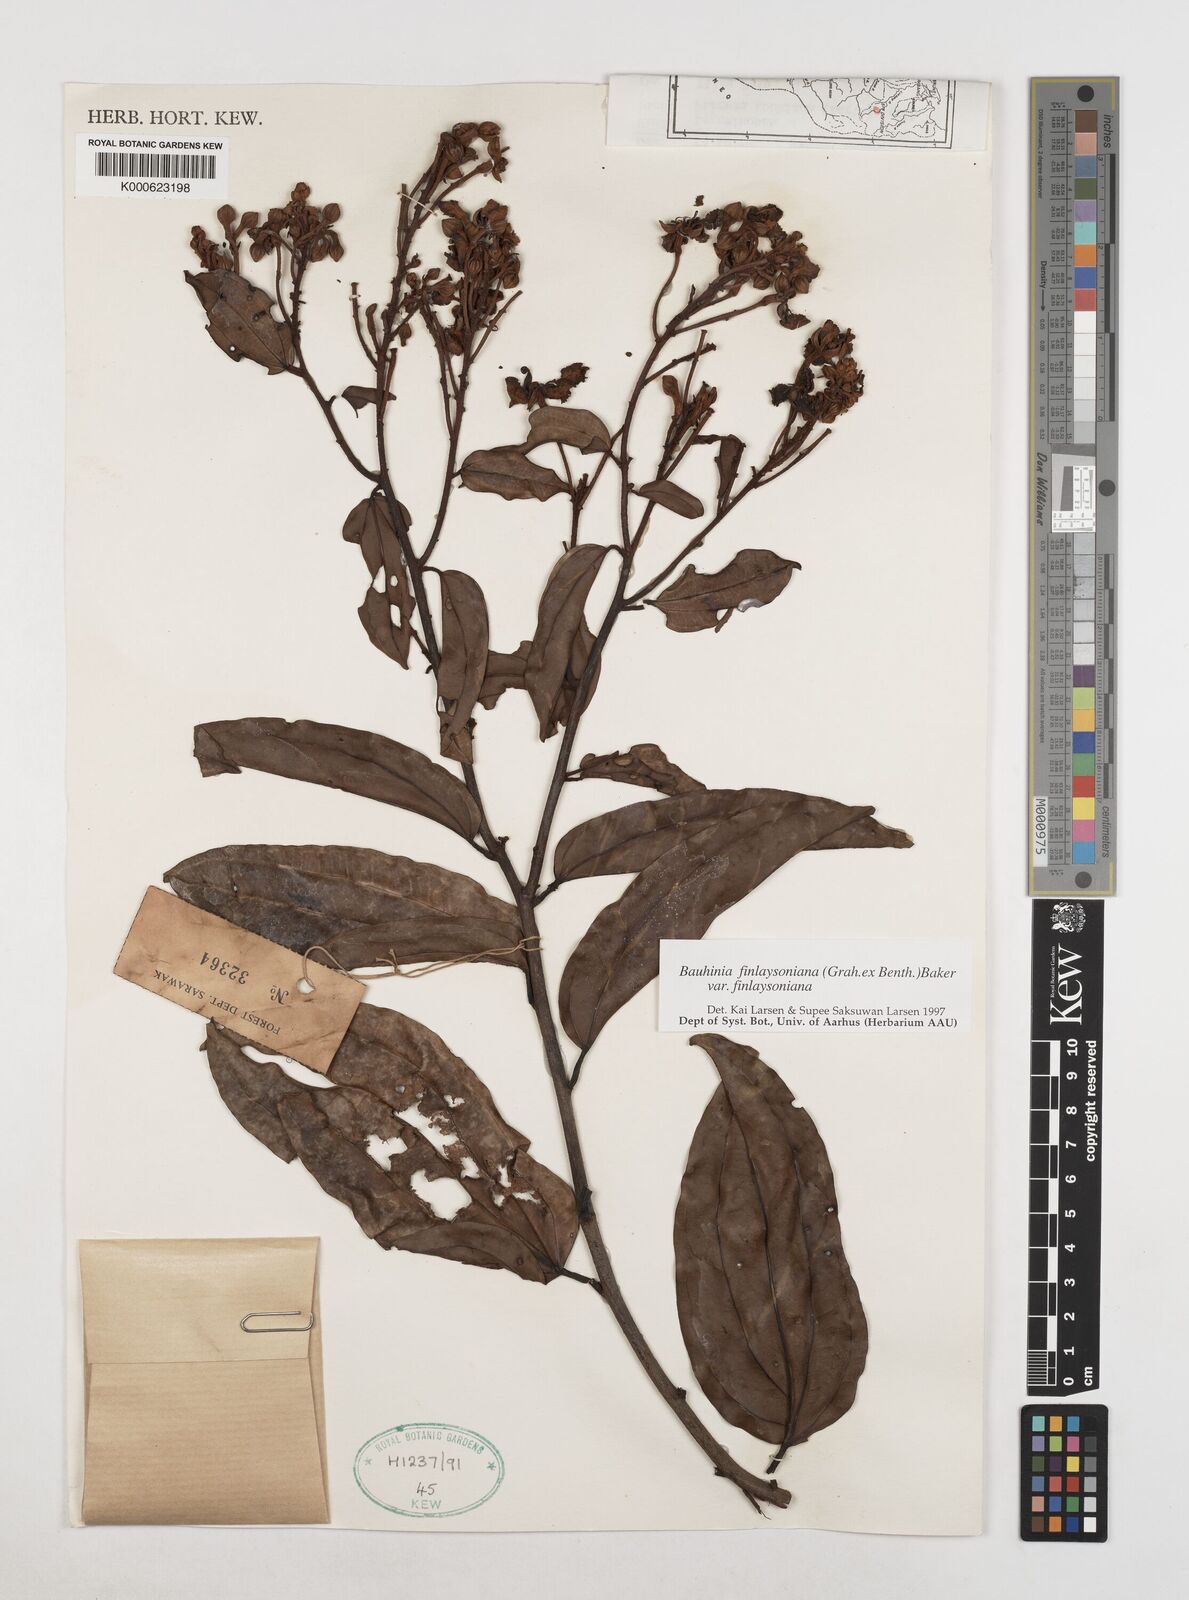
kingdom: Plantae
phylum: Tracheophyta
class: Magnoliopsida
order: Fabales
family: Fabaceae
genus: Bauhinia
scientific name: Bauhinia
